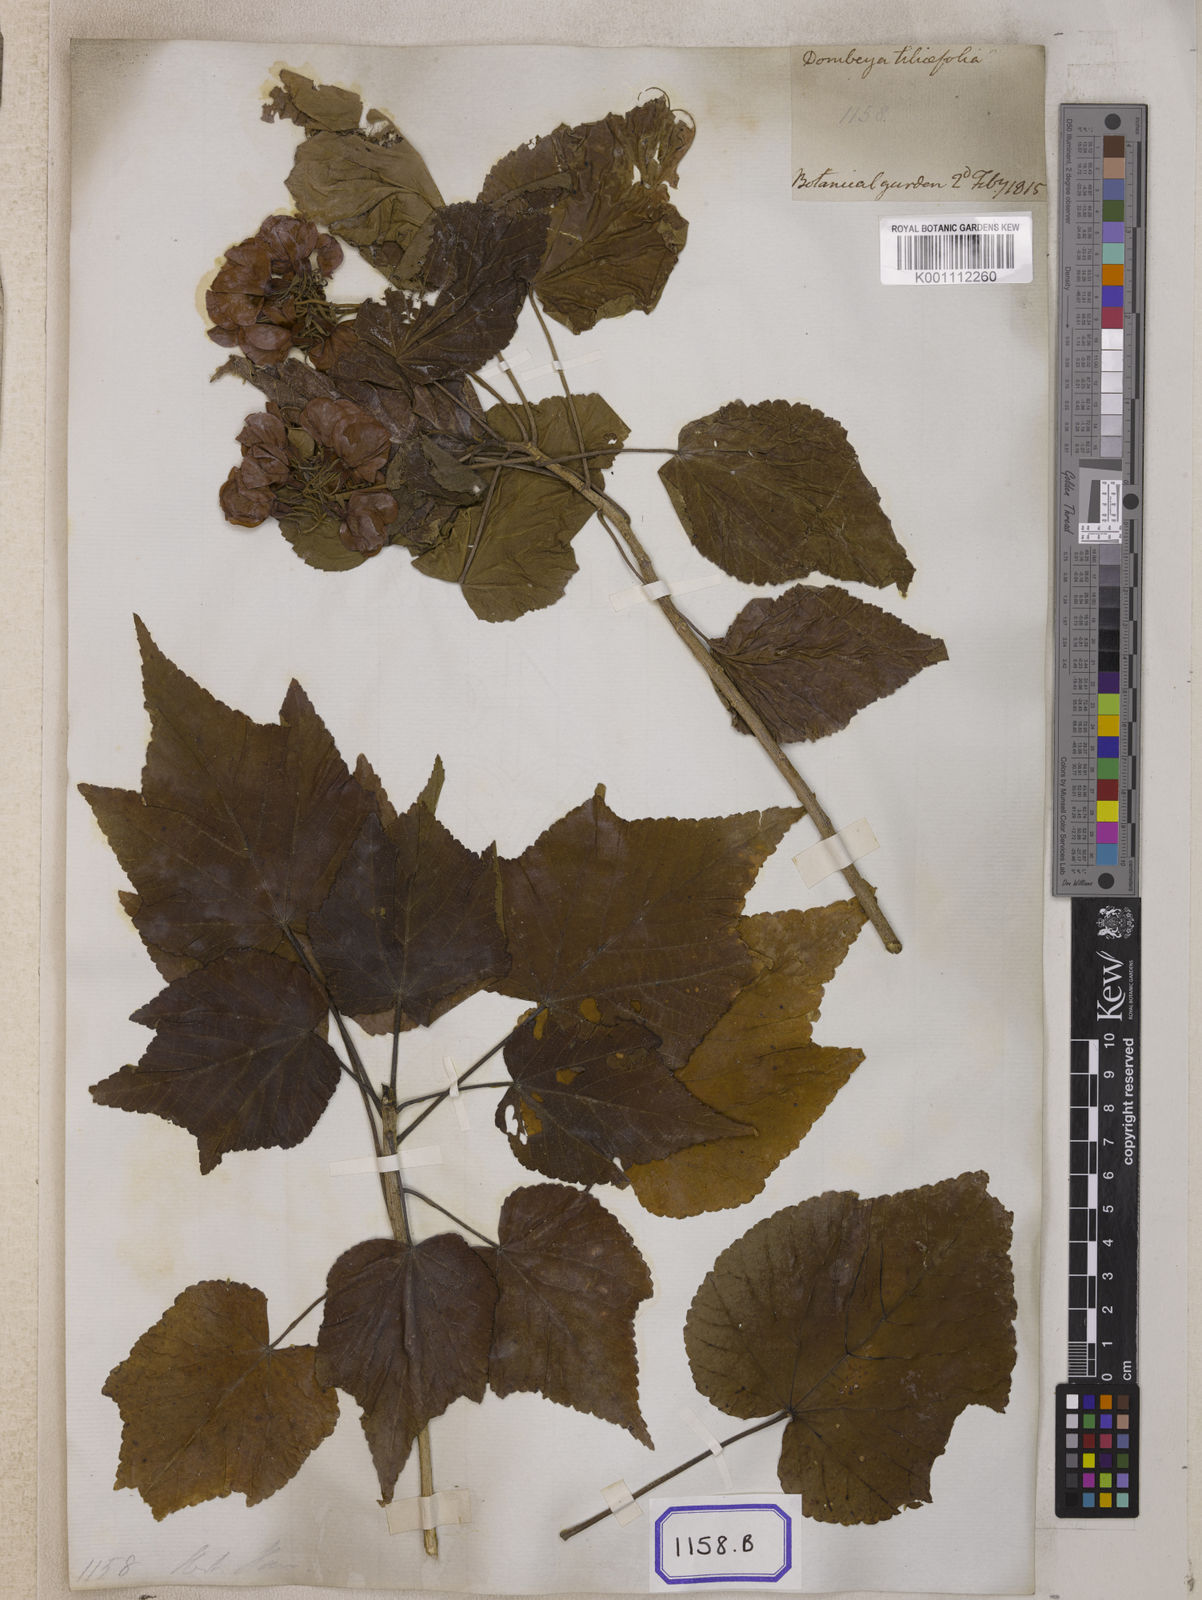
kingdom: Plantae
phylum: Tracheophyta
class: Magnoliopsida
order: Malvales
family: Malvaceae
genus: Dombeya
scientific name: Dombeya acutangula
